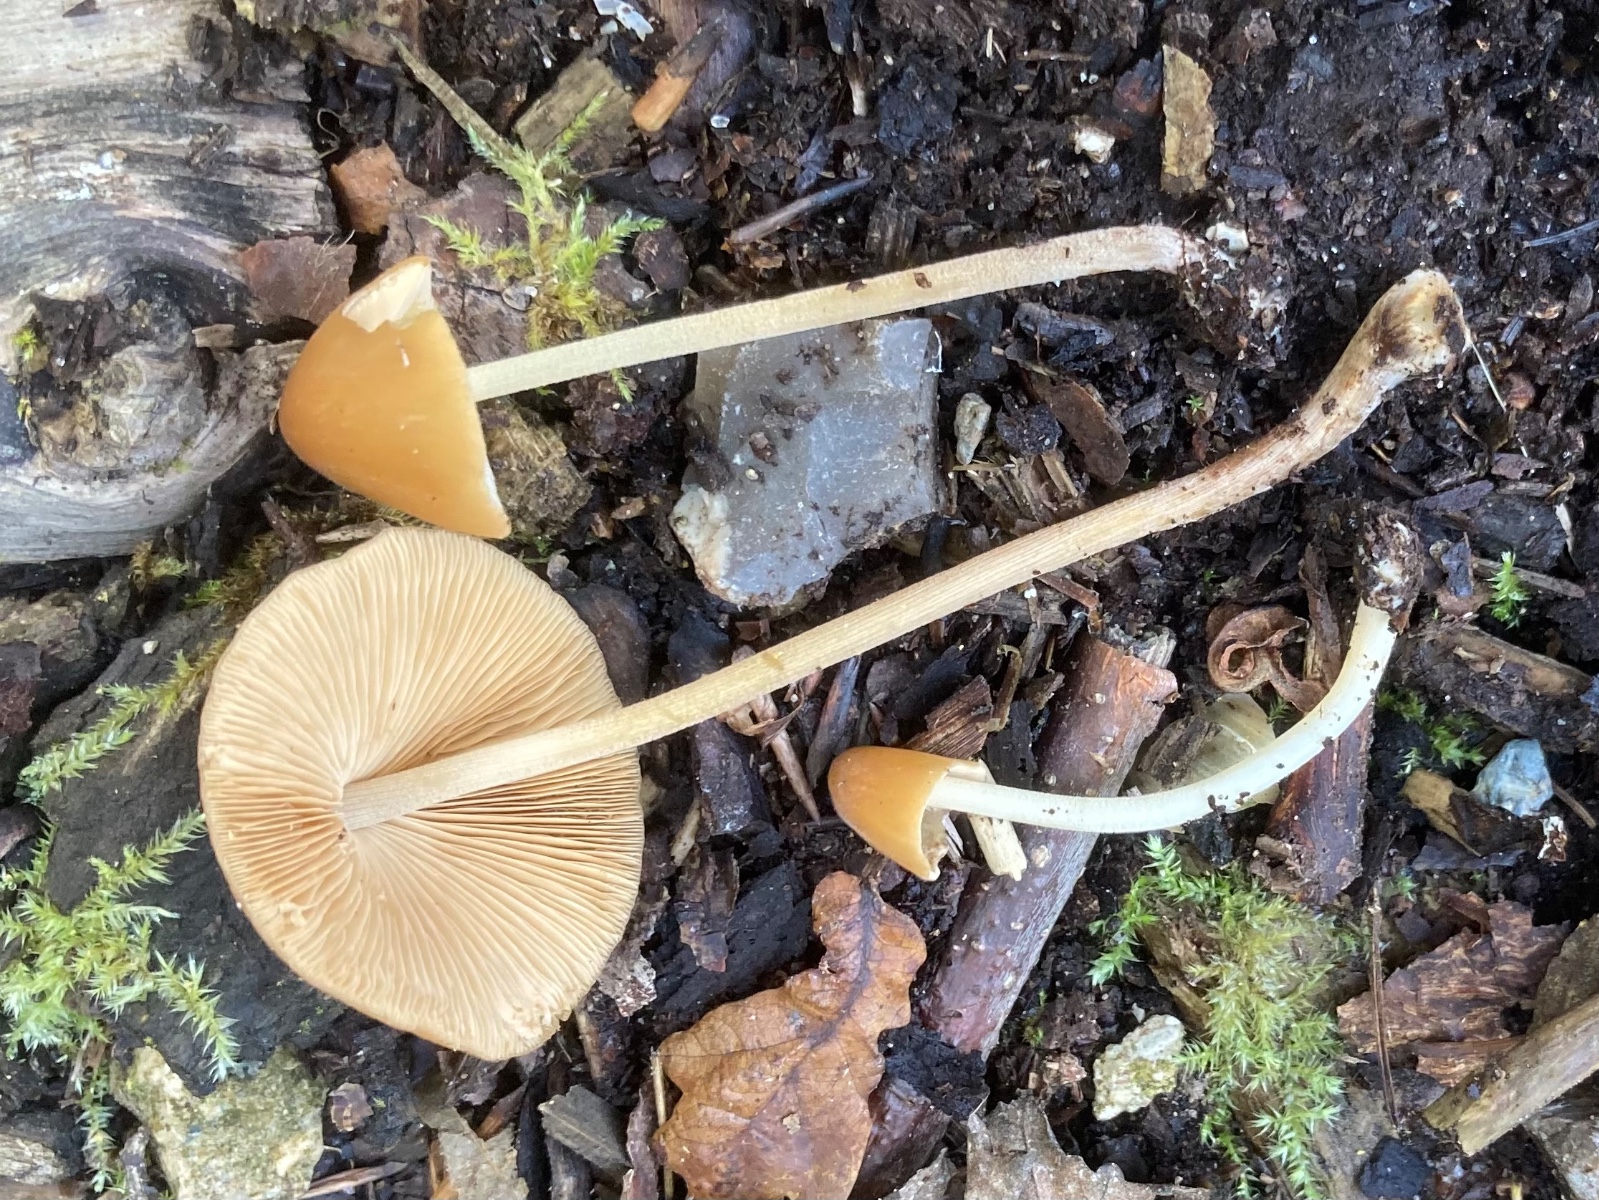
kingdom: Fungi
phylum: Basidiomycota
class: Agaricomycetes
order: Agaricales
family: Bolbitiaceae
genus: Conocybe
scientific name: Conocybe
